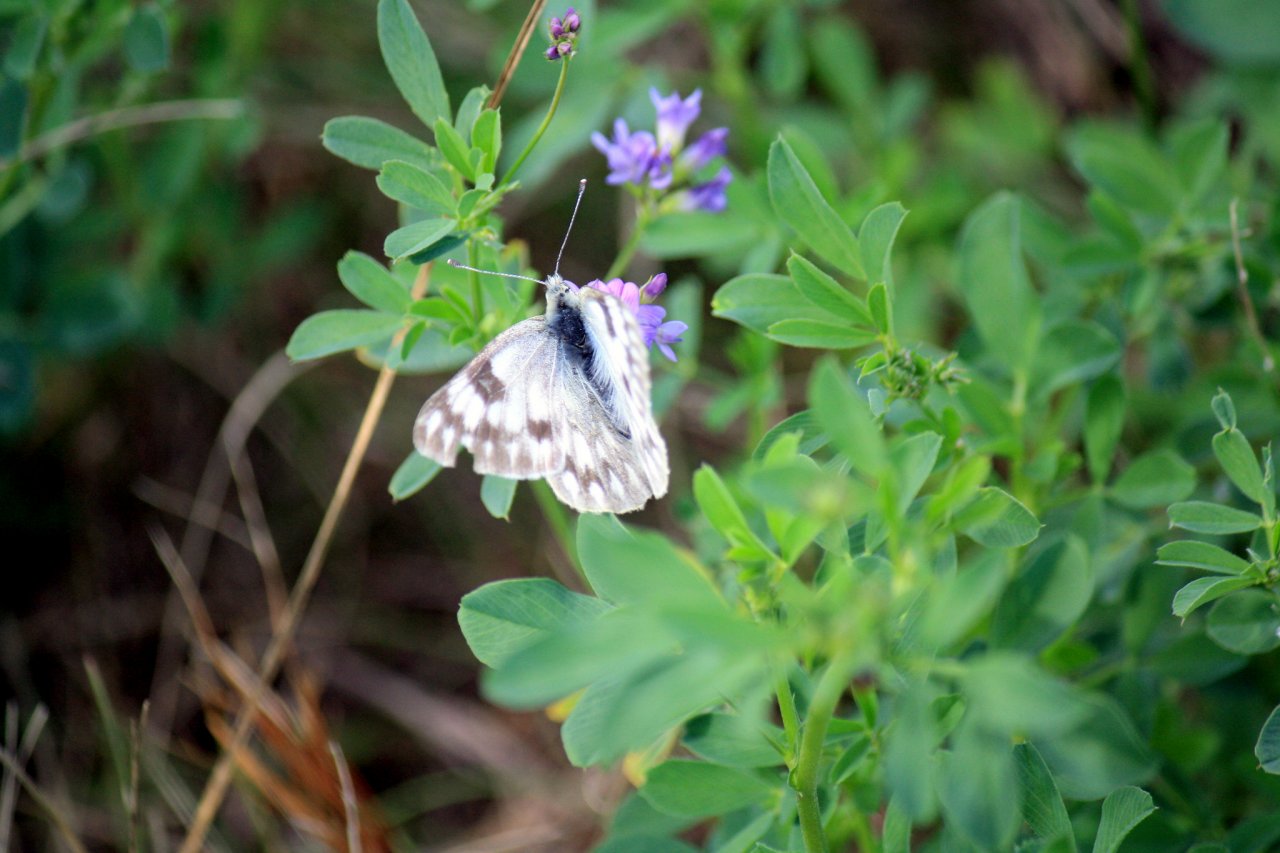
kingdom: Animalia
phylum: Arthropoda
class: Insecta
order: Lepidoptera
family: Pieridae
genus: Pontia
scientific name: Pontia occidentalis
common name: Western White
